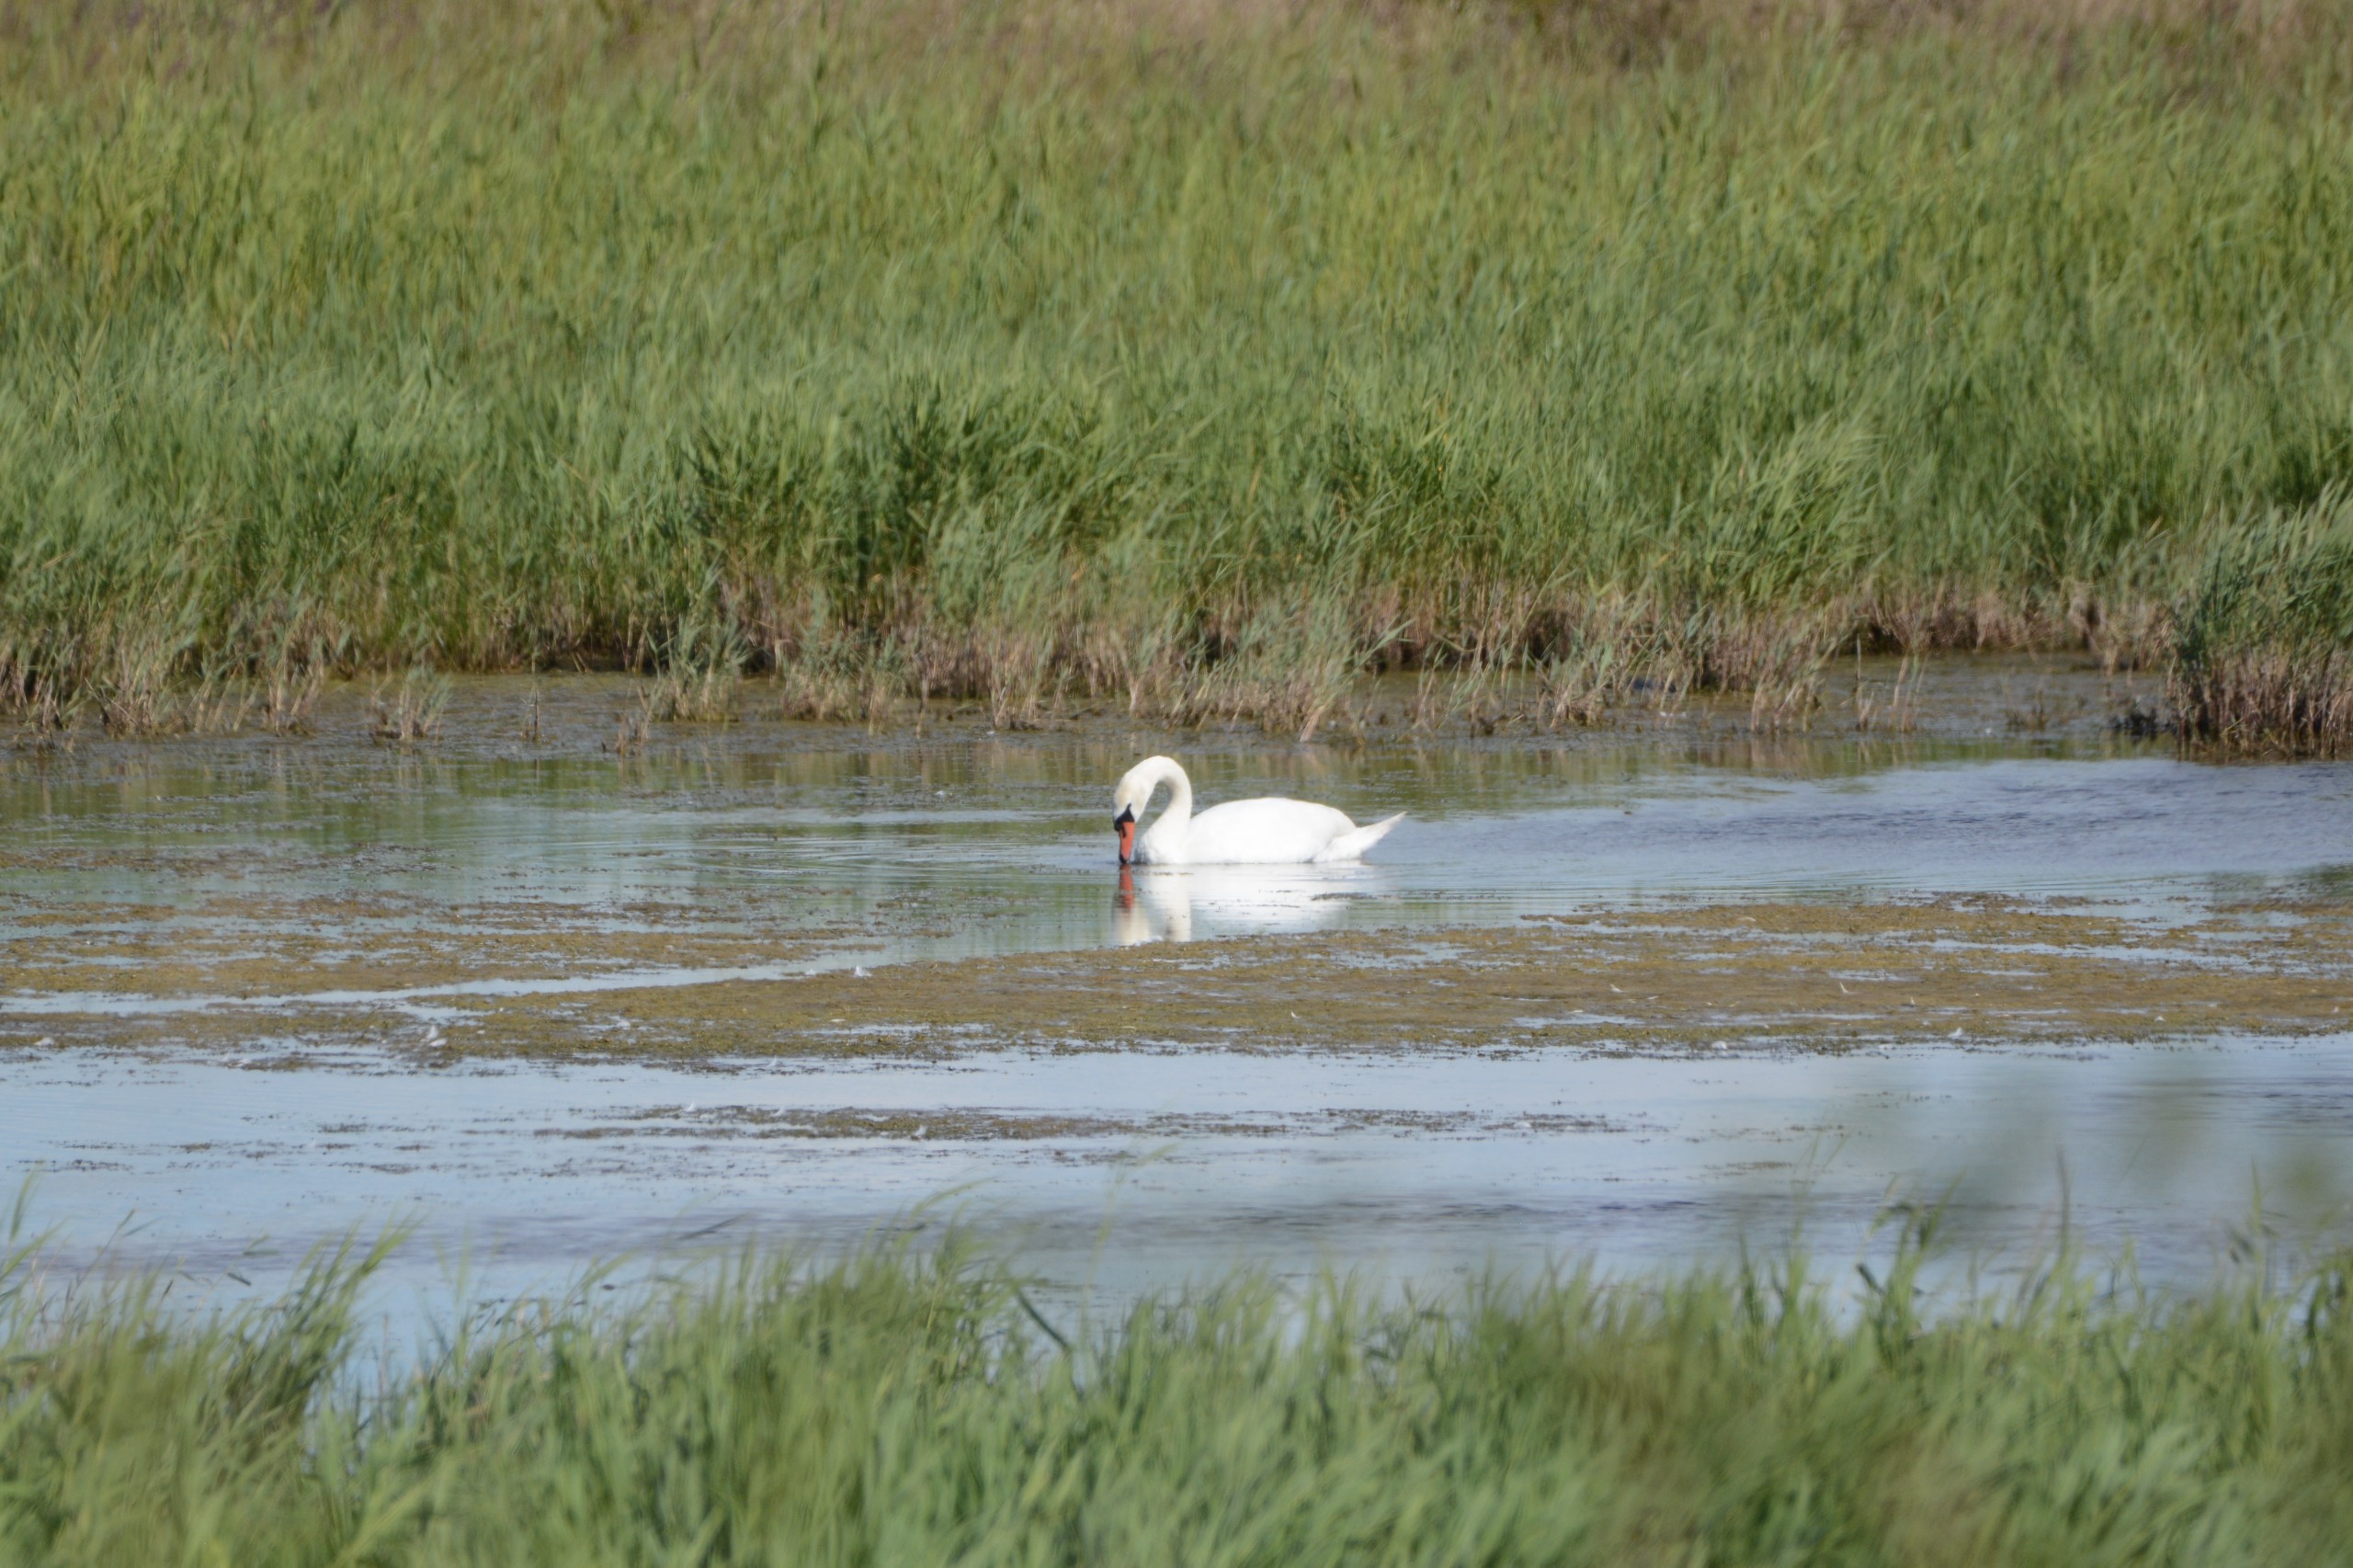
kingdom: Animalia
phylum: Chordata
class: Aves
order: Anseriformes
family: Anatidae
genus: Cygnus
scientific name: Cygnus olor
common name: Knopsvane
